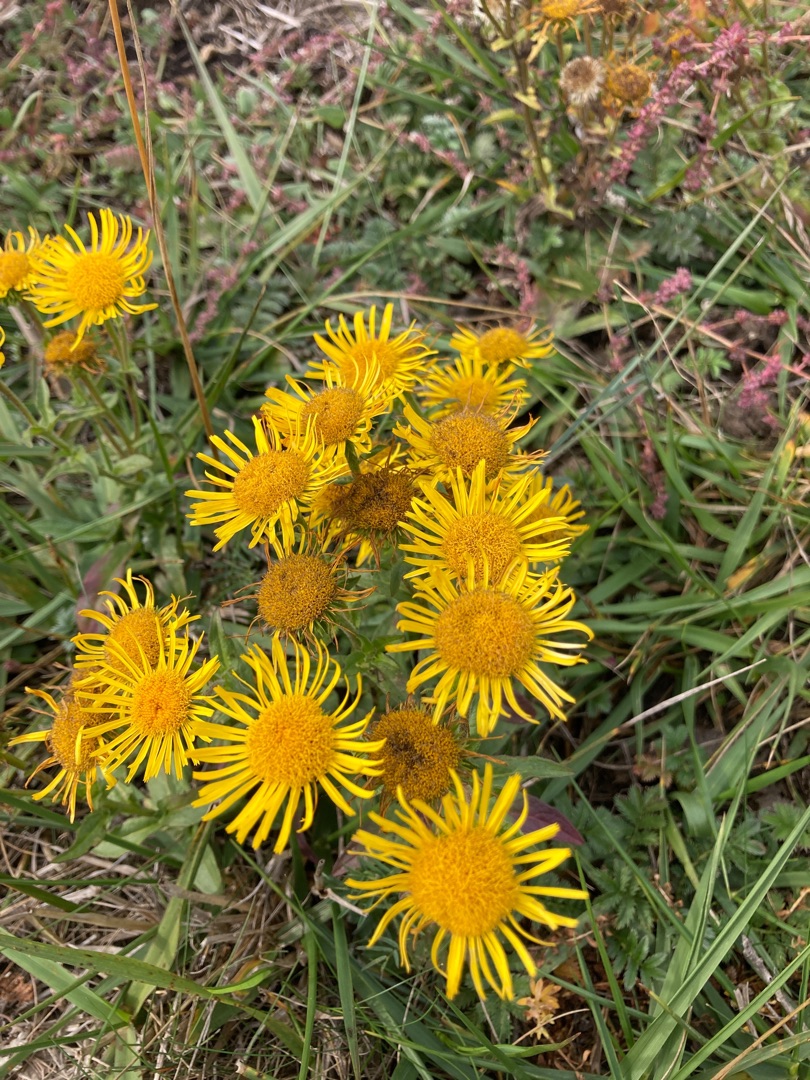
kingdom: Plantae
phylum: Tracheophyta
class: Magnoliopsida
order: Asterales
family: Asteraceae
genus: Pentanema
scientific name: Pentanema britannicum
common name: Soløje-alant
